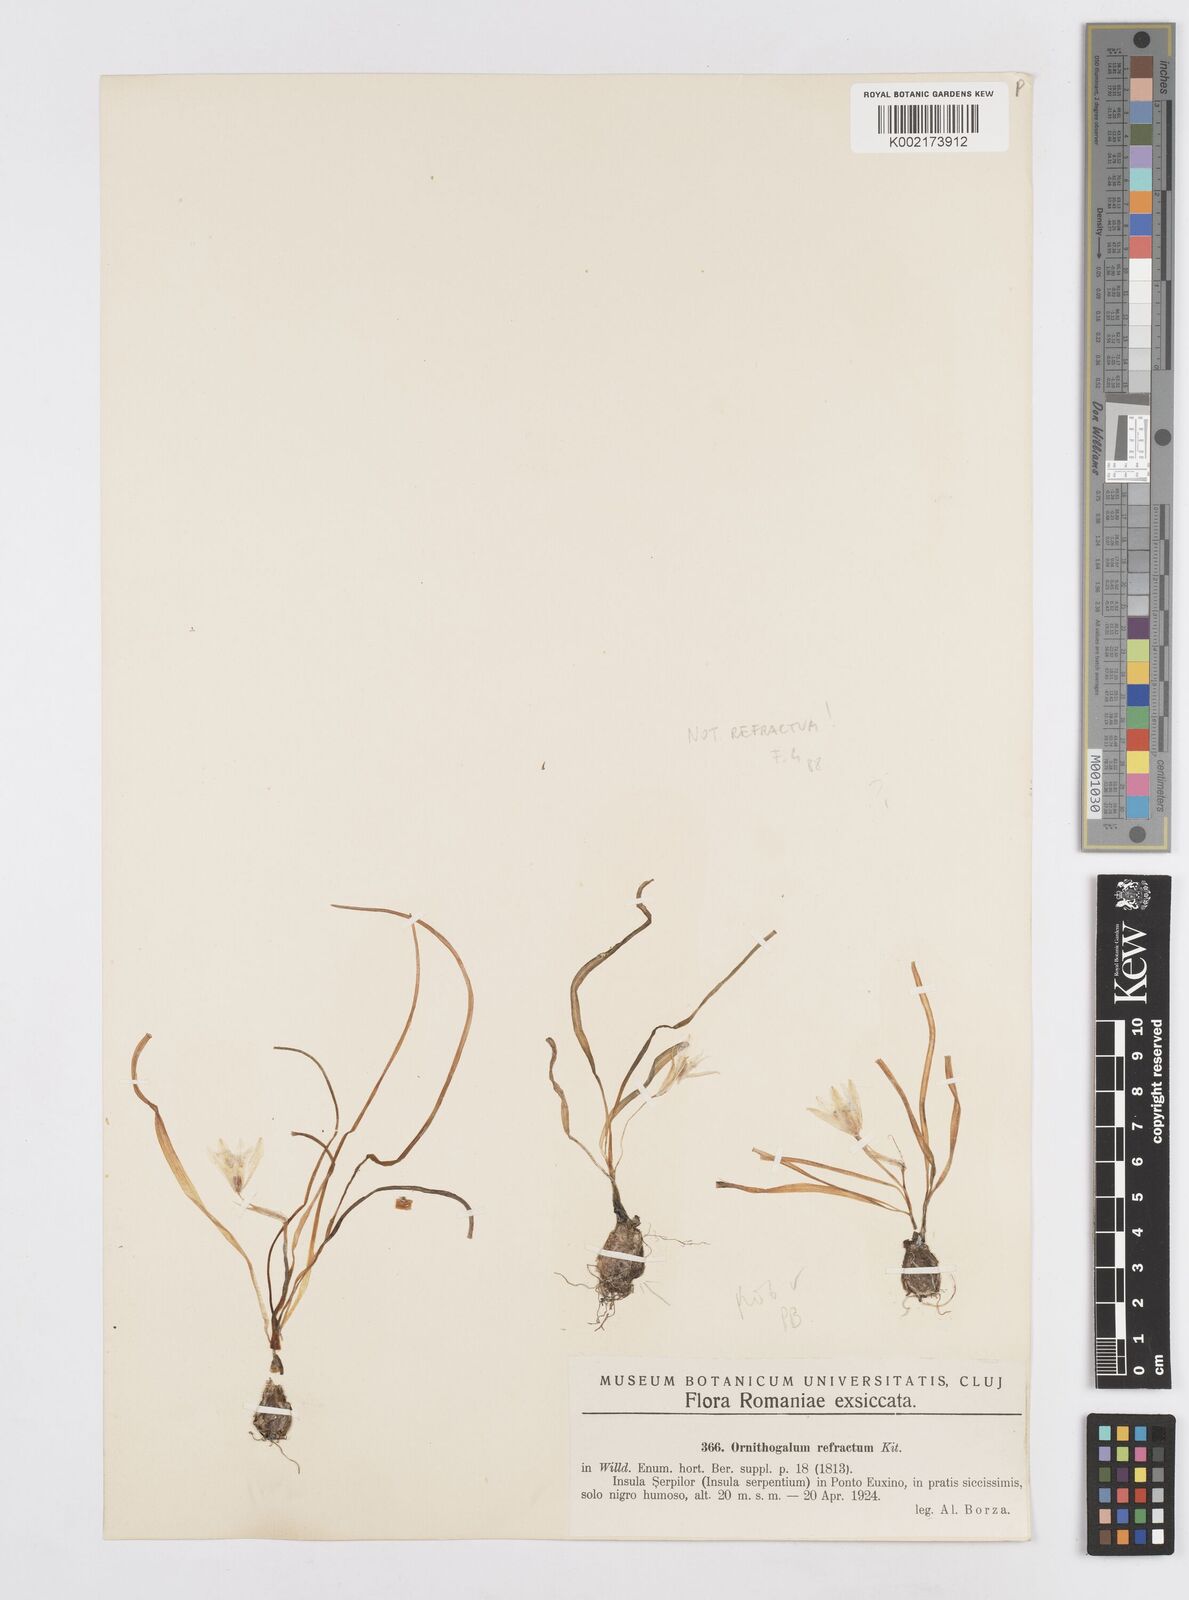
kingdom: Plantae
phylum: Tracheophyta
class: Liliopsida
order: Asparagales
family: Asparagaceae
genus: Ornithogalum
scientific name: Ornithogalum refractum
